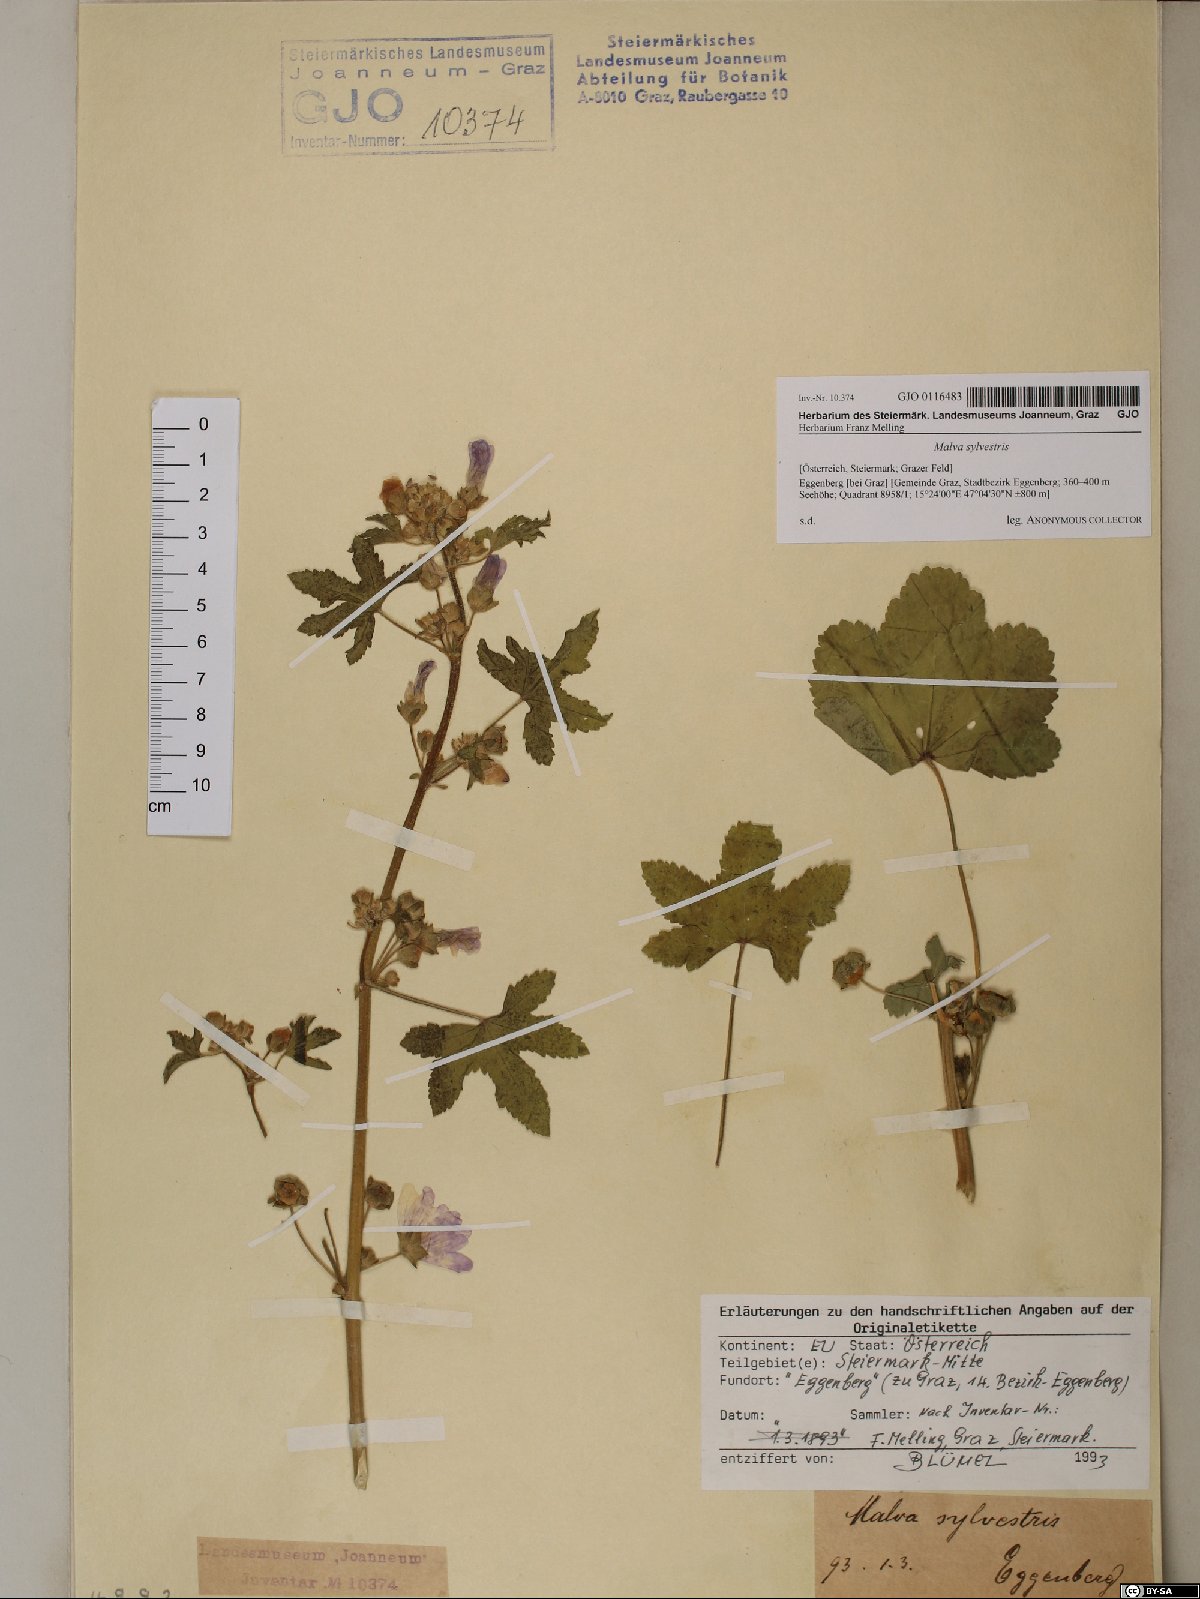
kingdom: Plantae
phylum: Tracheophyta
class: Magnoliopsida
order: Malvales
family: Malvaceae
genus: Malva
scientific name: Malva sylvestris
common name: Common mallow
